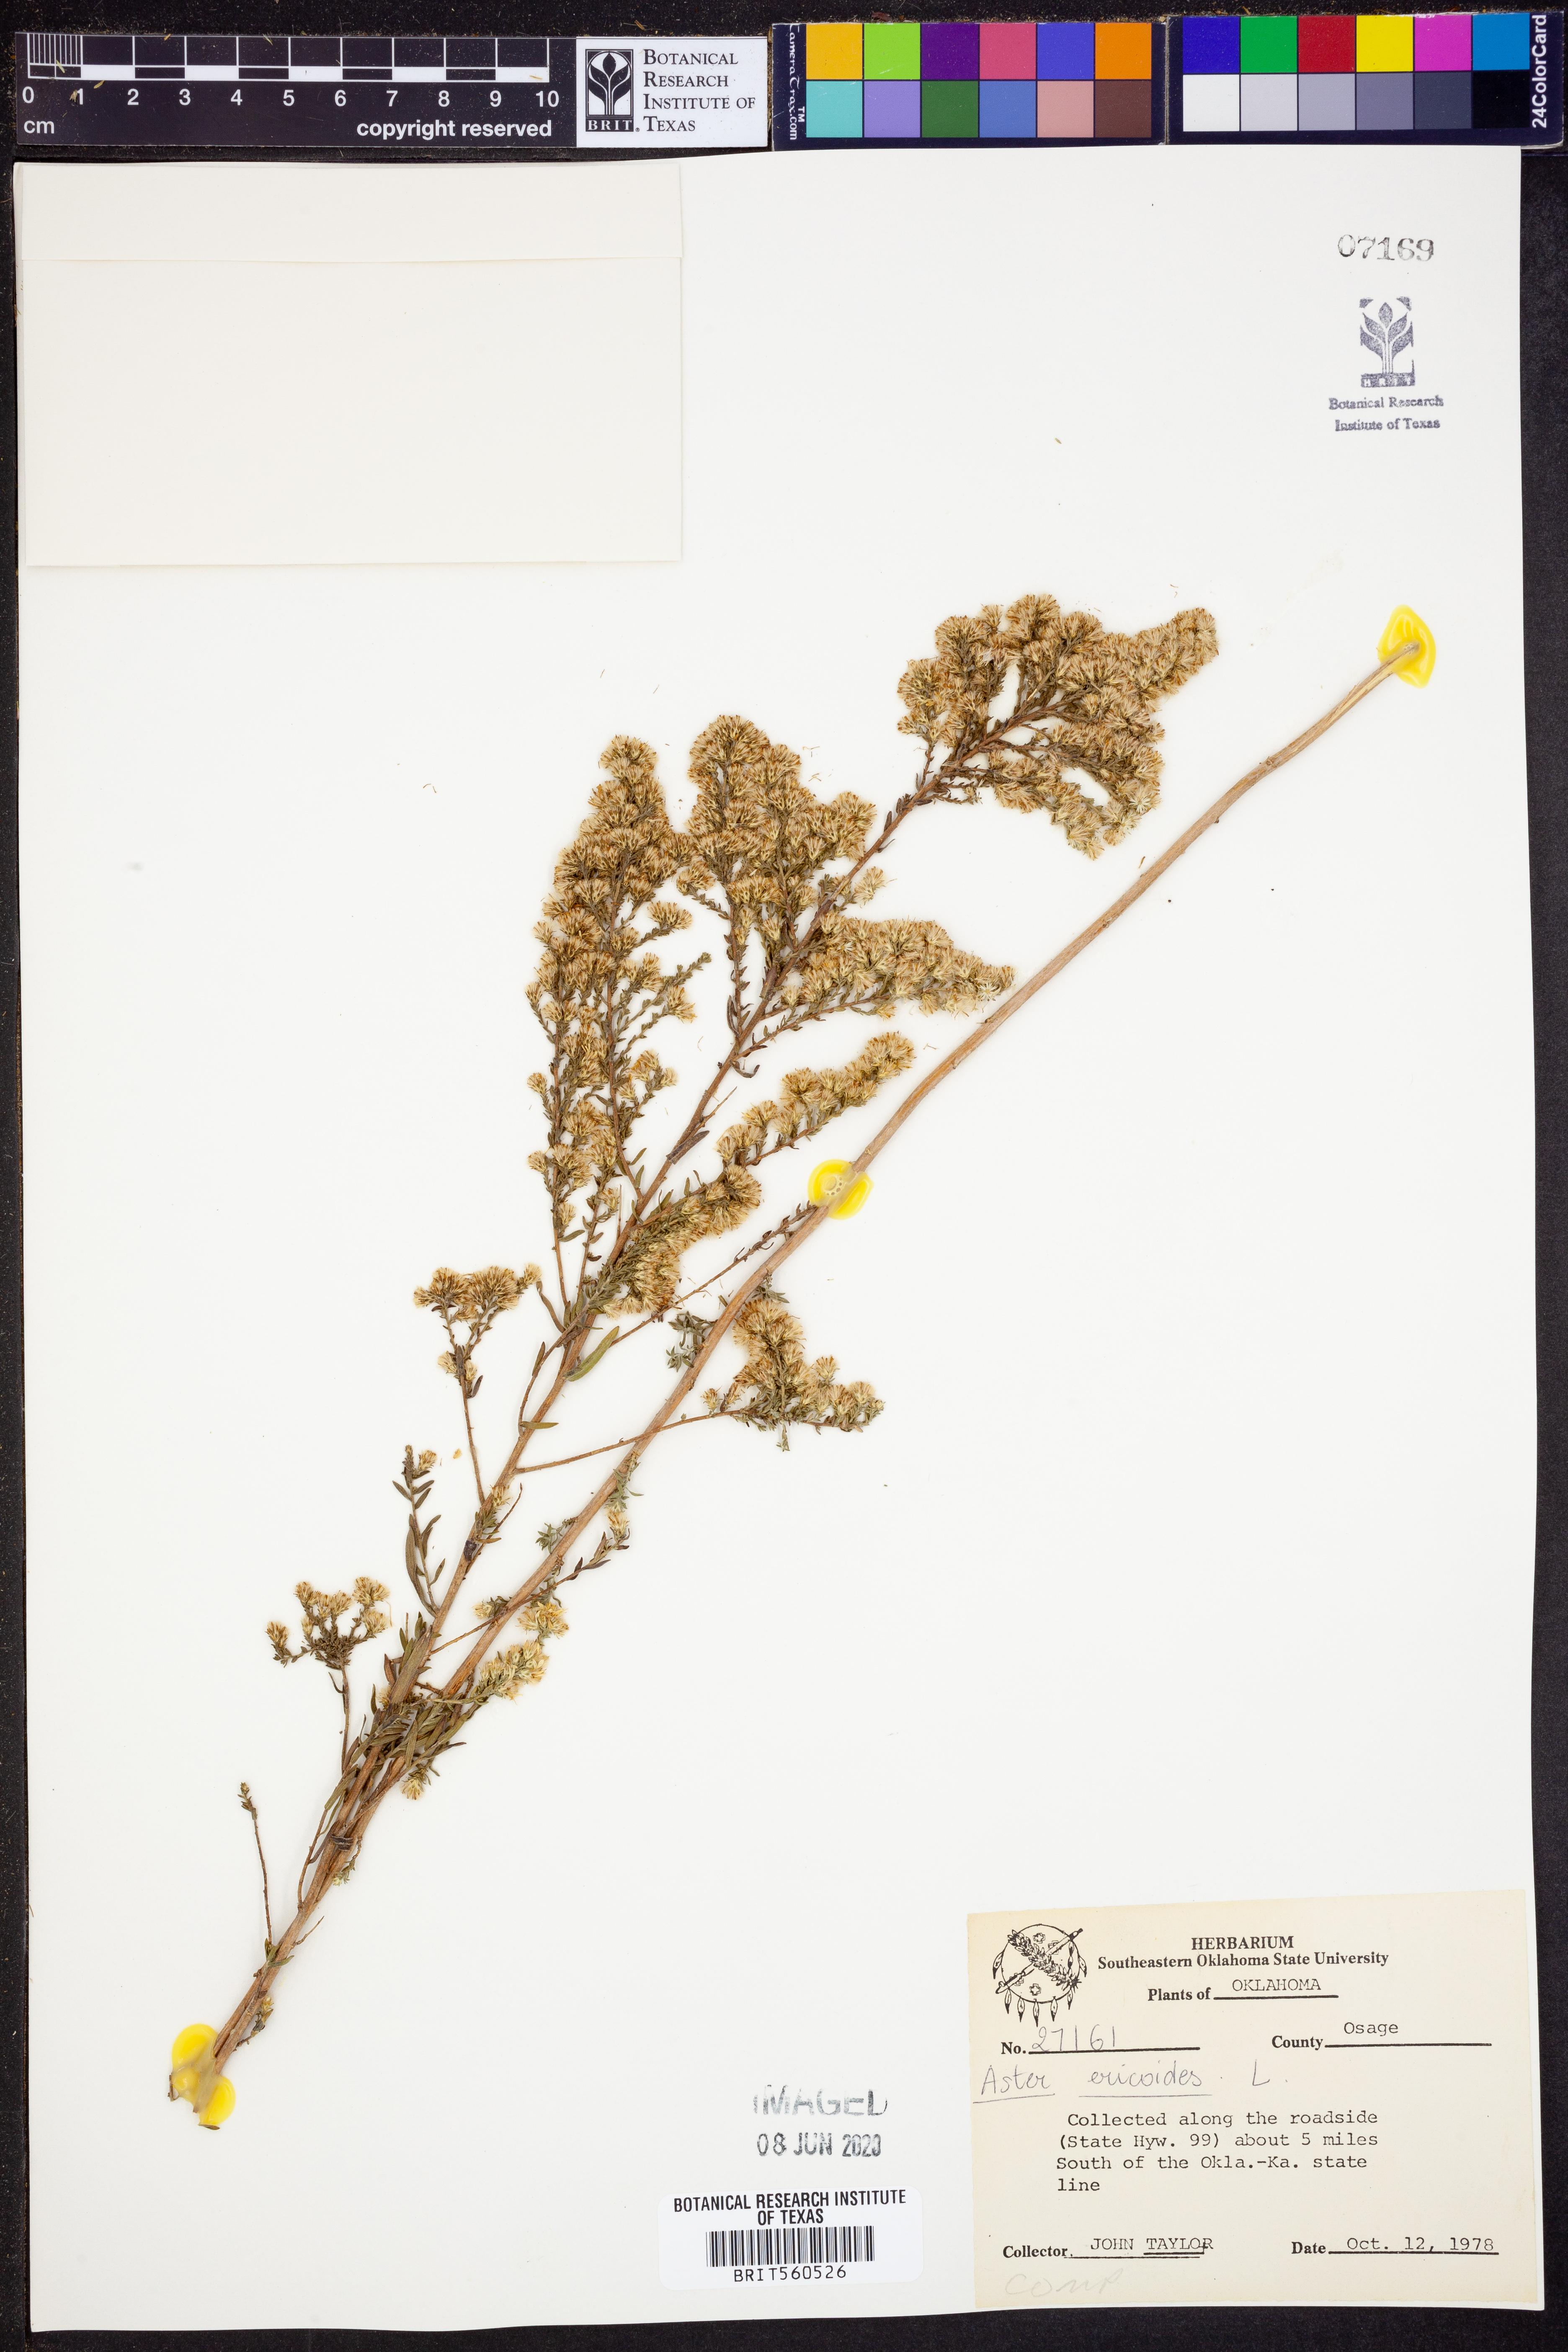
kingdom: Plantae
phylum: Tracheophyta
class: Magnoliopsida
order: Asterales
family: Asteraceae
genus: Symphyotrichum
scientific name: Symphyotrichum ericoides
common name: Heath aster
